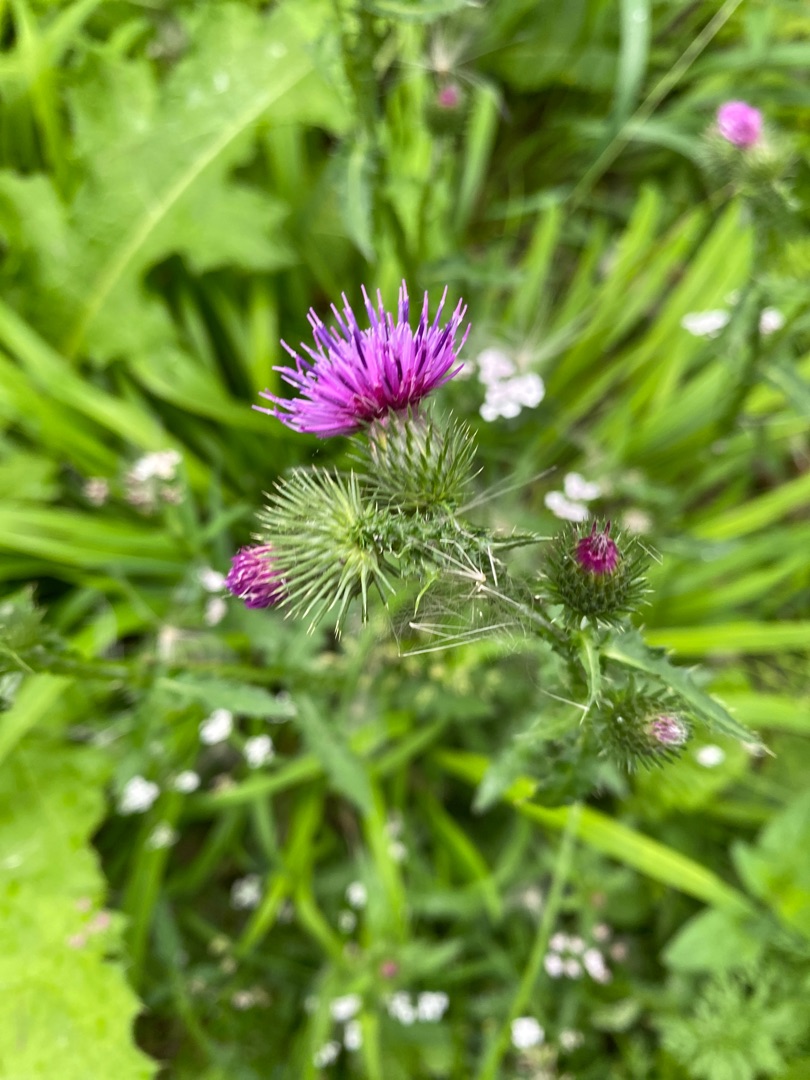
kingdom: Plantae
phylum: Tracheophyta
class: Magnoliopsida
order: Asterales
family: Asteraceae
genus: Carduus
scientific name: Carduus crispus
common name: Kruset tidsel
